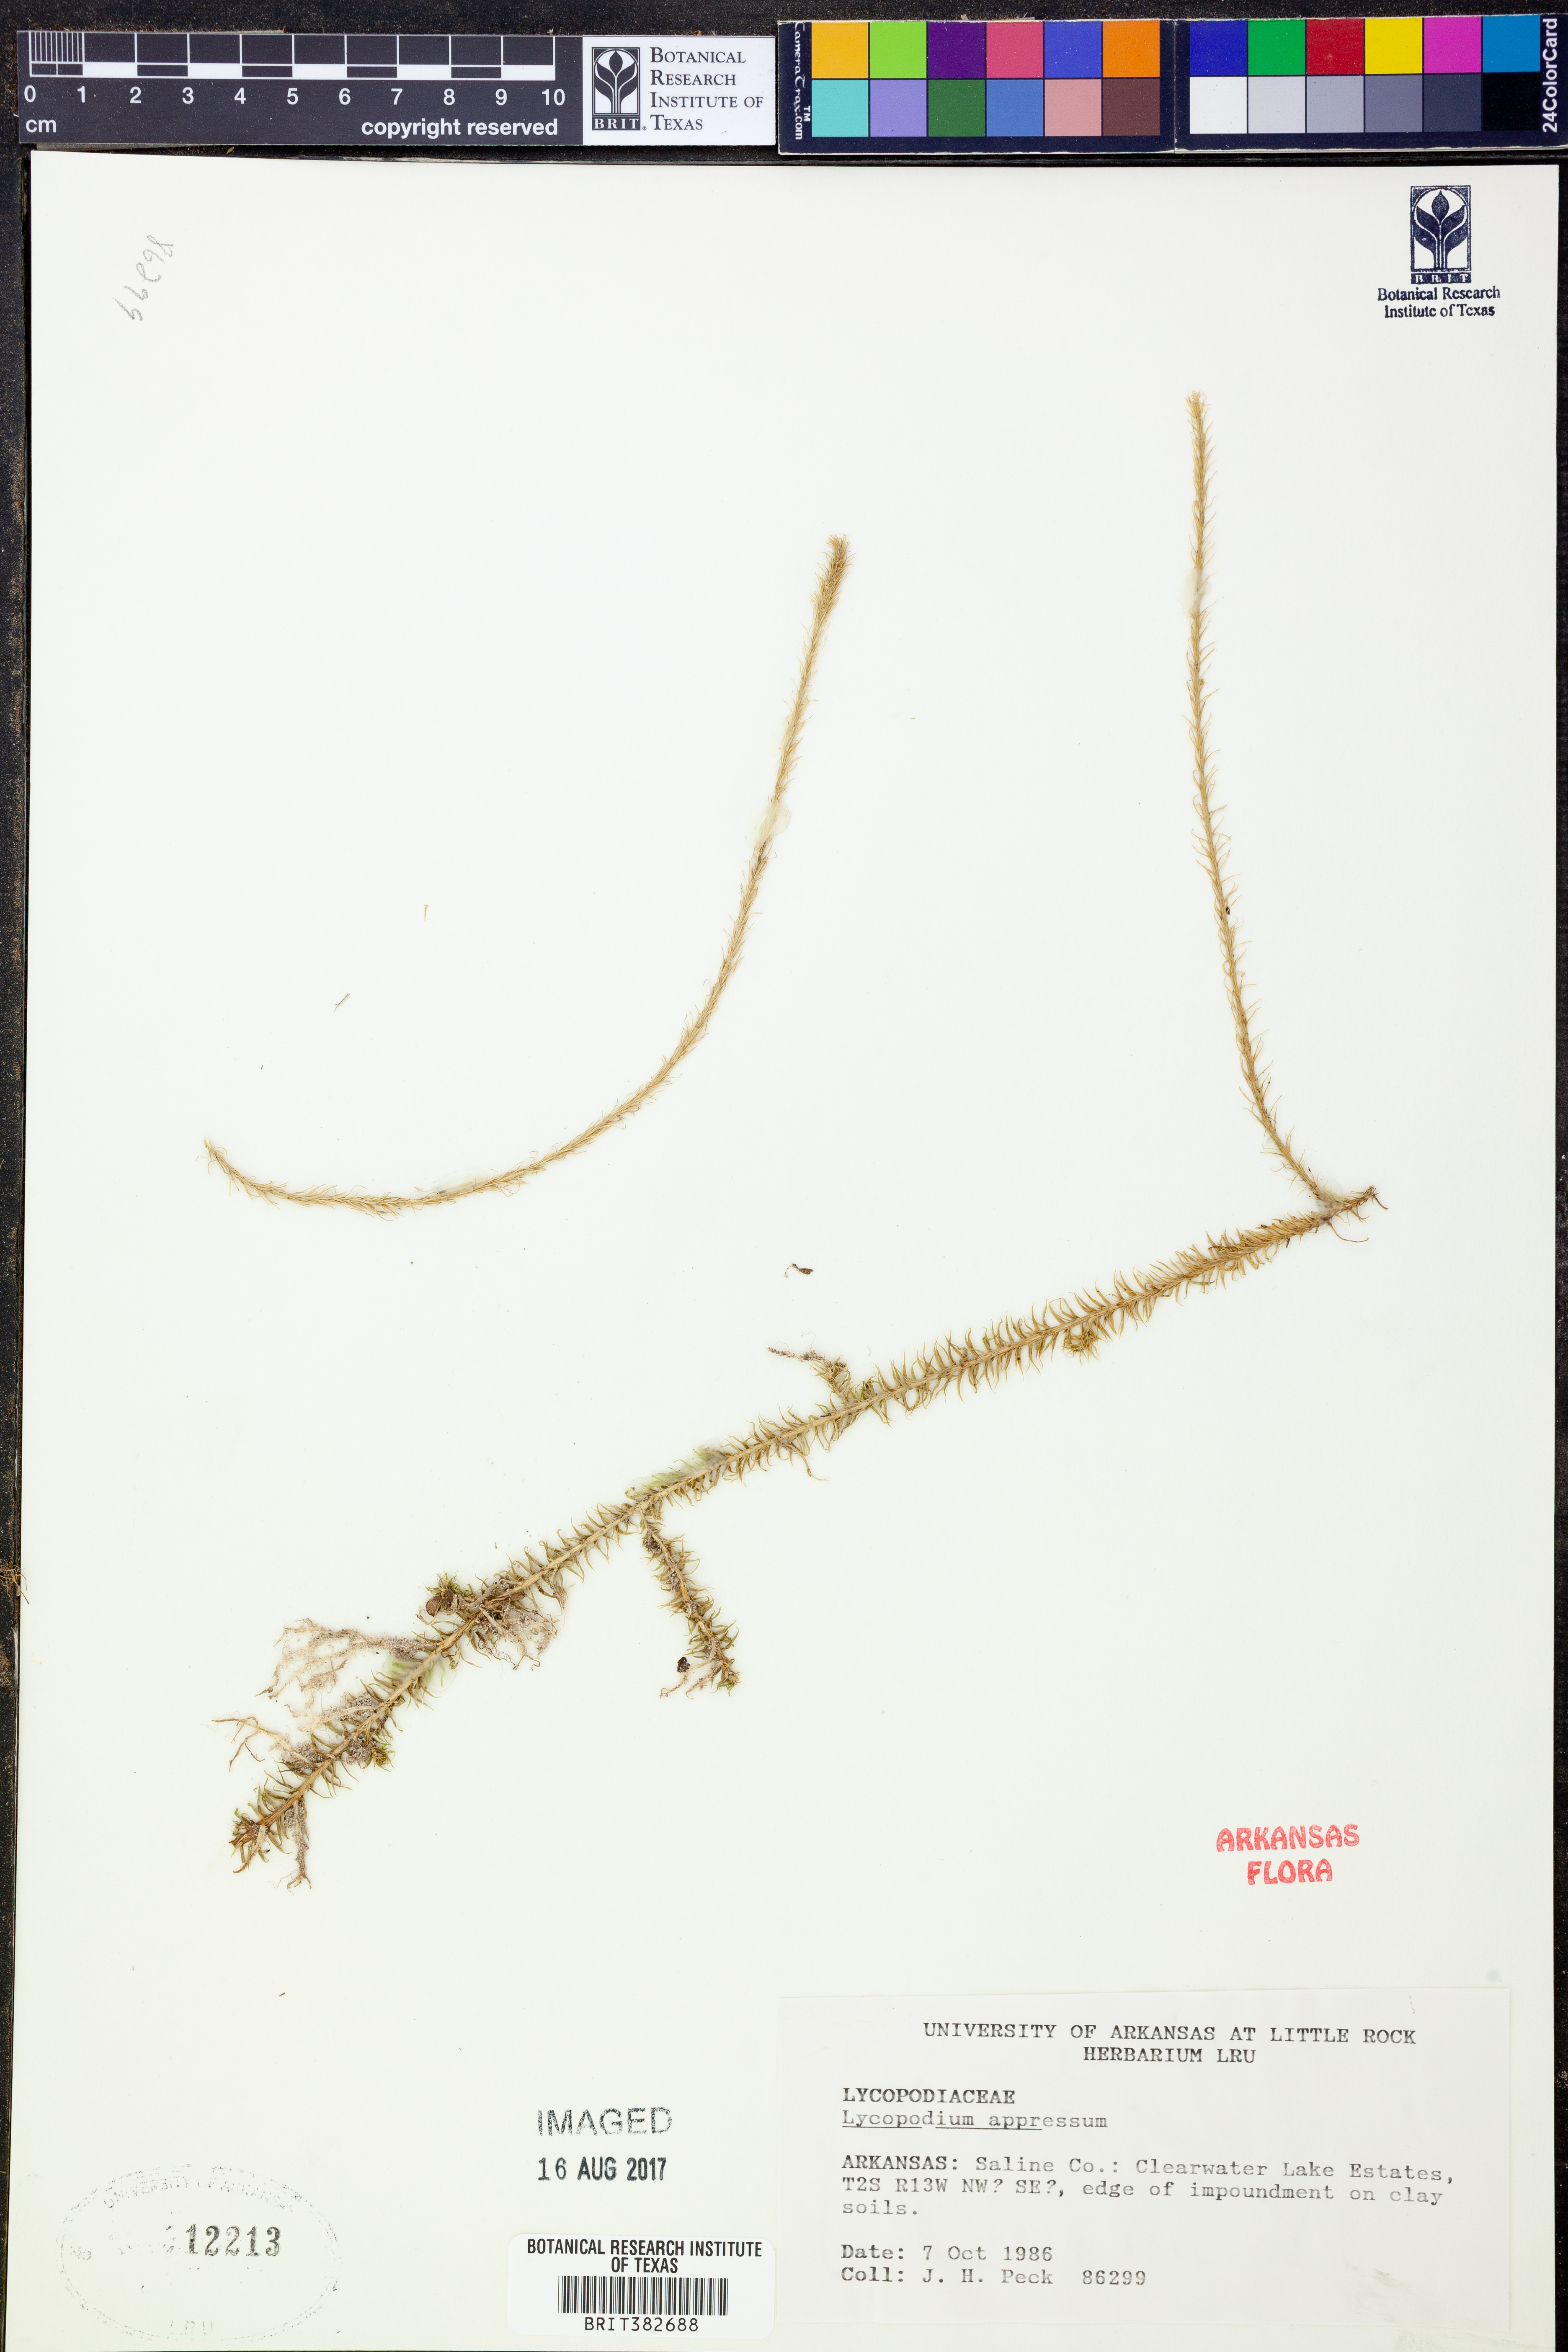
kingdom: Plantae
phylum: Tracheophyta
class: Lycopodiopsida
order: Lycopodiales
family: Lycopodiaceae
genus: Lycopodiella
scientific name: Lycopodiella appressa
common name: Appressed bog clubmoss
